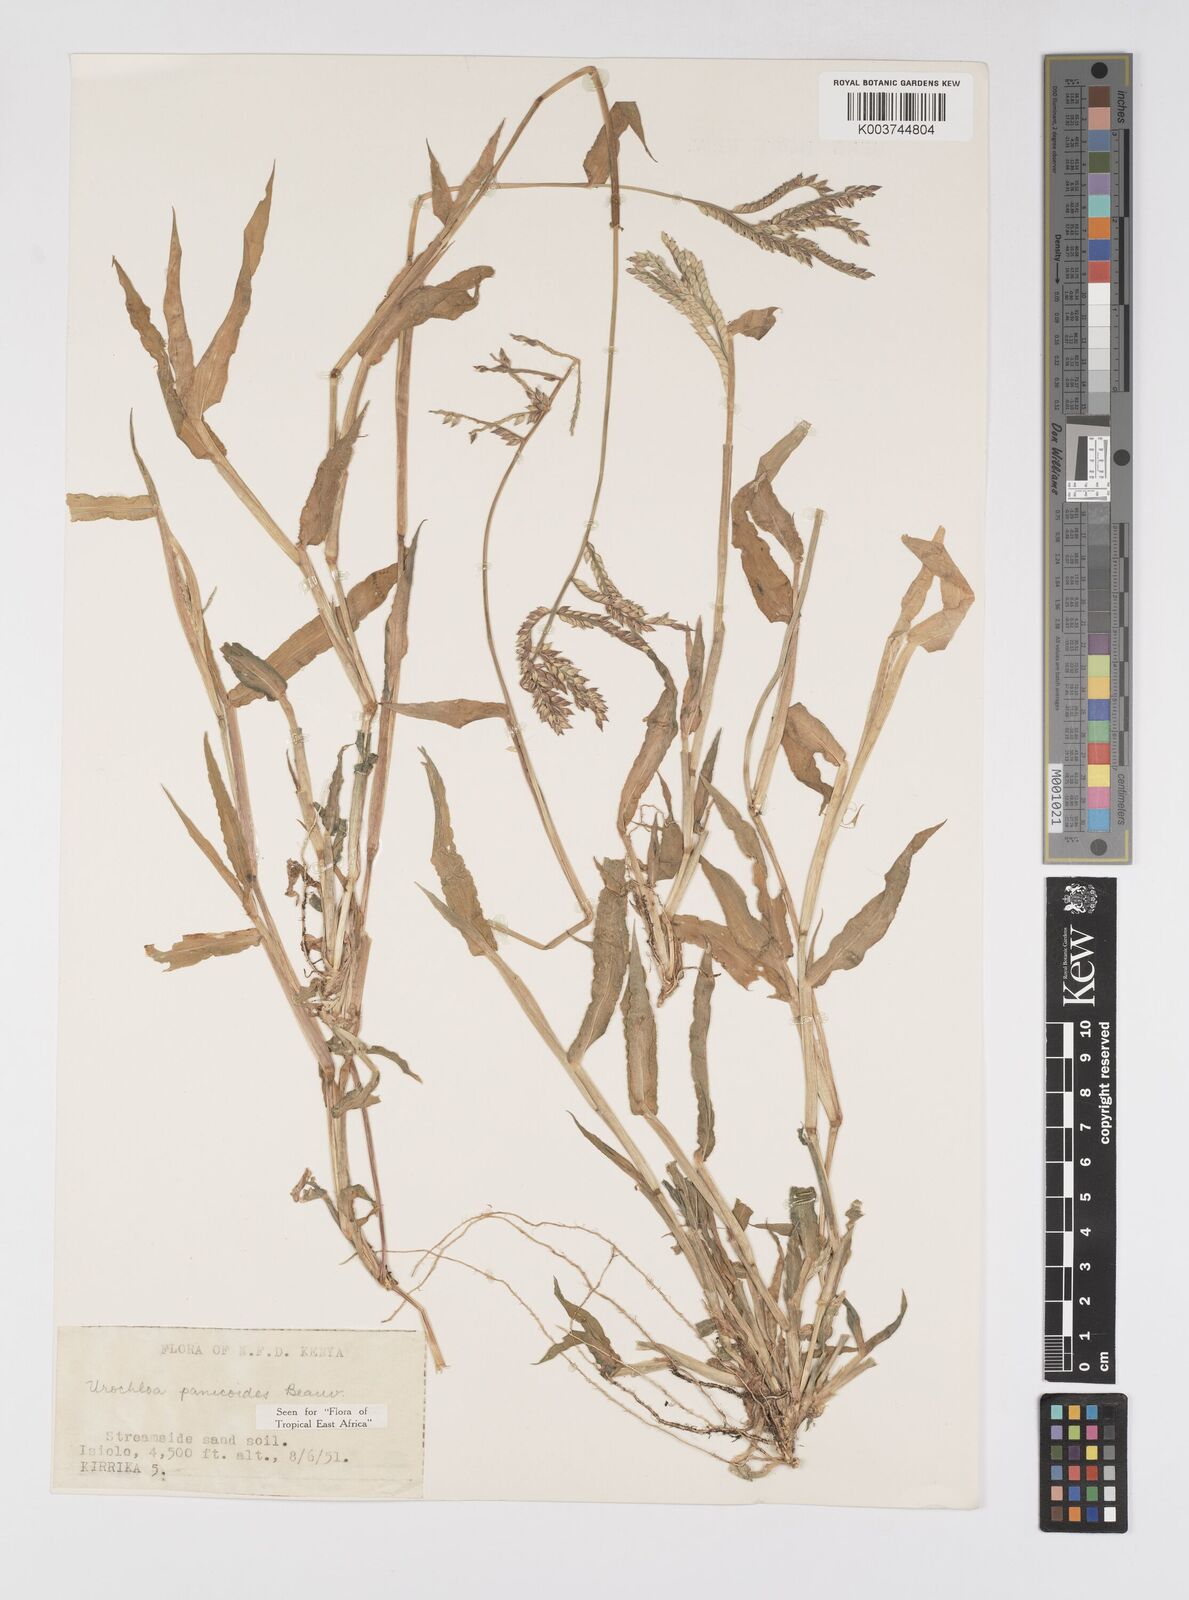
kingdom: Plantae
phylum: Tracheophyta
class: Liliopsida
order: Poales
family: Poaceae
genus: Urochloa
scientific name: Urochloa panicoides
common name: Sharp-flowered signal-grass
